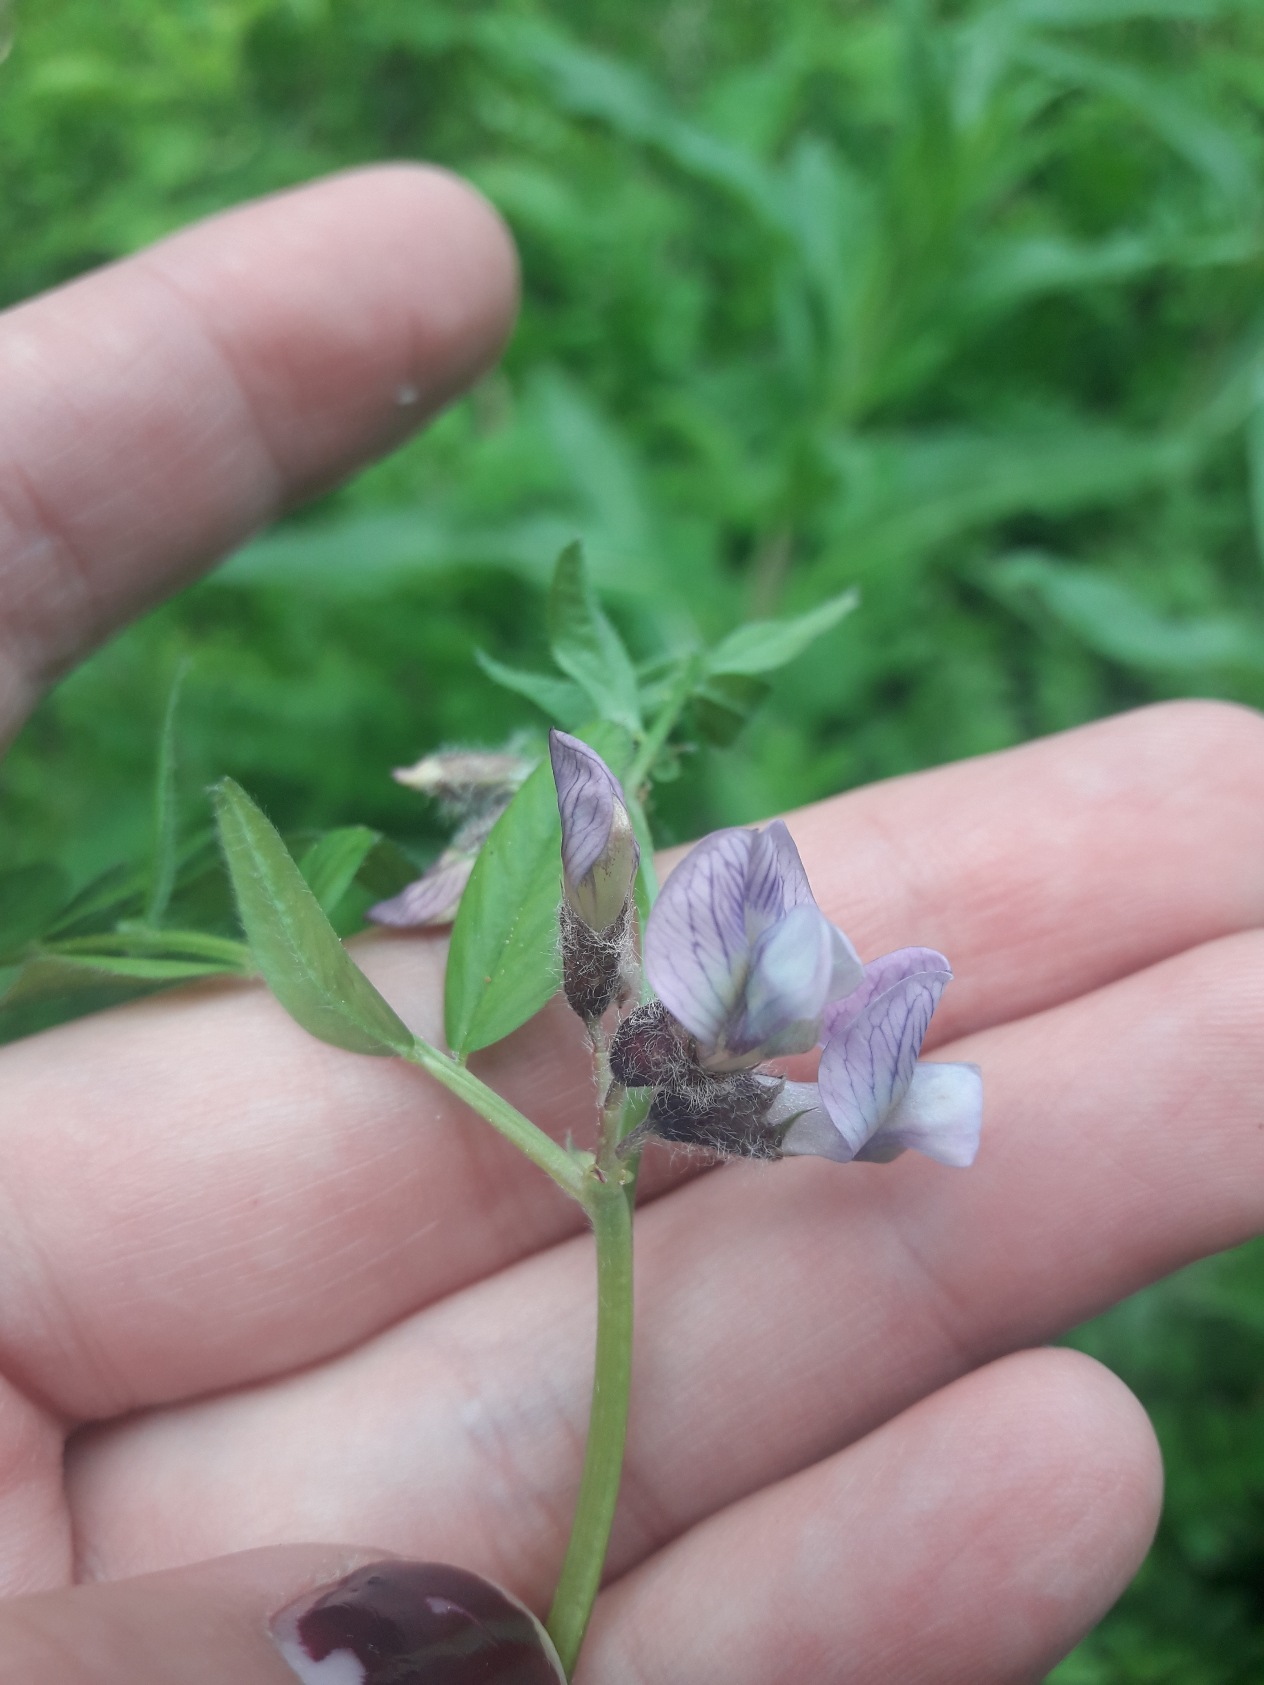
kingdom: Plantae
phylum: Tracheophyta
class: Magnoliopsida
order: Fabales
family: Fabaceae
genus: Vicia
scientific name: Vicia sepium
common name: Gærde-vikke
